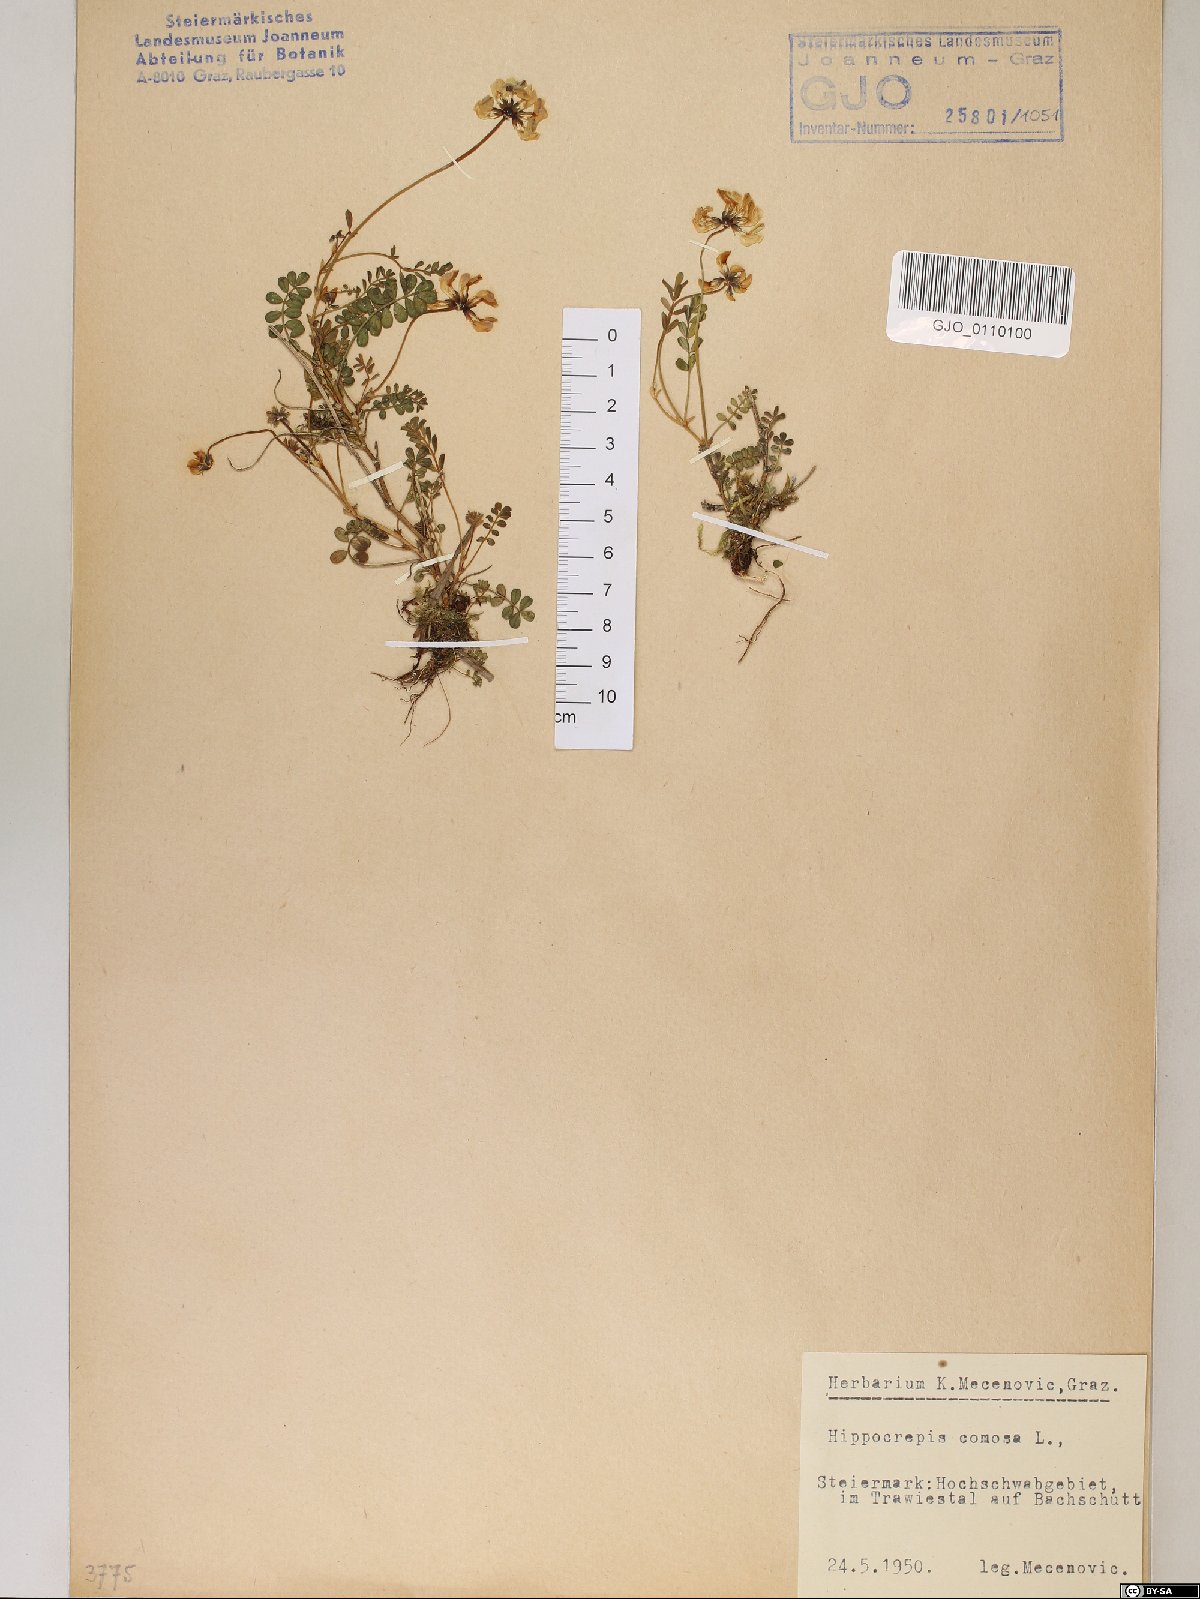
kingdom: Plantae
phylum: Tracheophyta
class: Magnoliopsida
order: Fabales
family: Fabaceae
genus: Hippocrepis
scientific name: Hippocrepis comosa
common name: Horseshoe vetch
